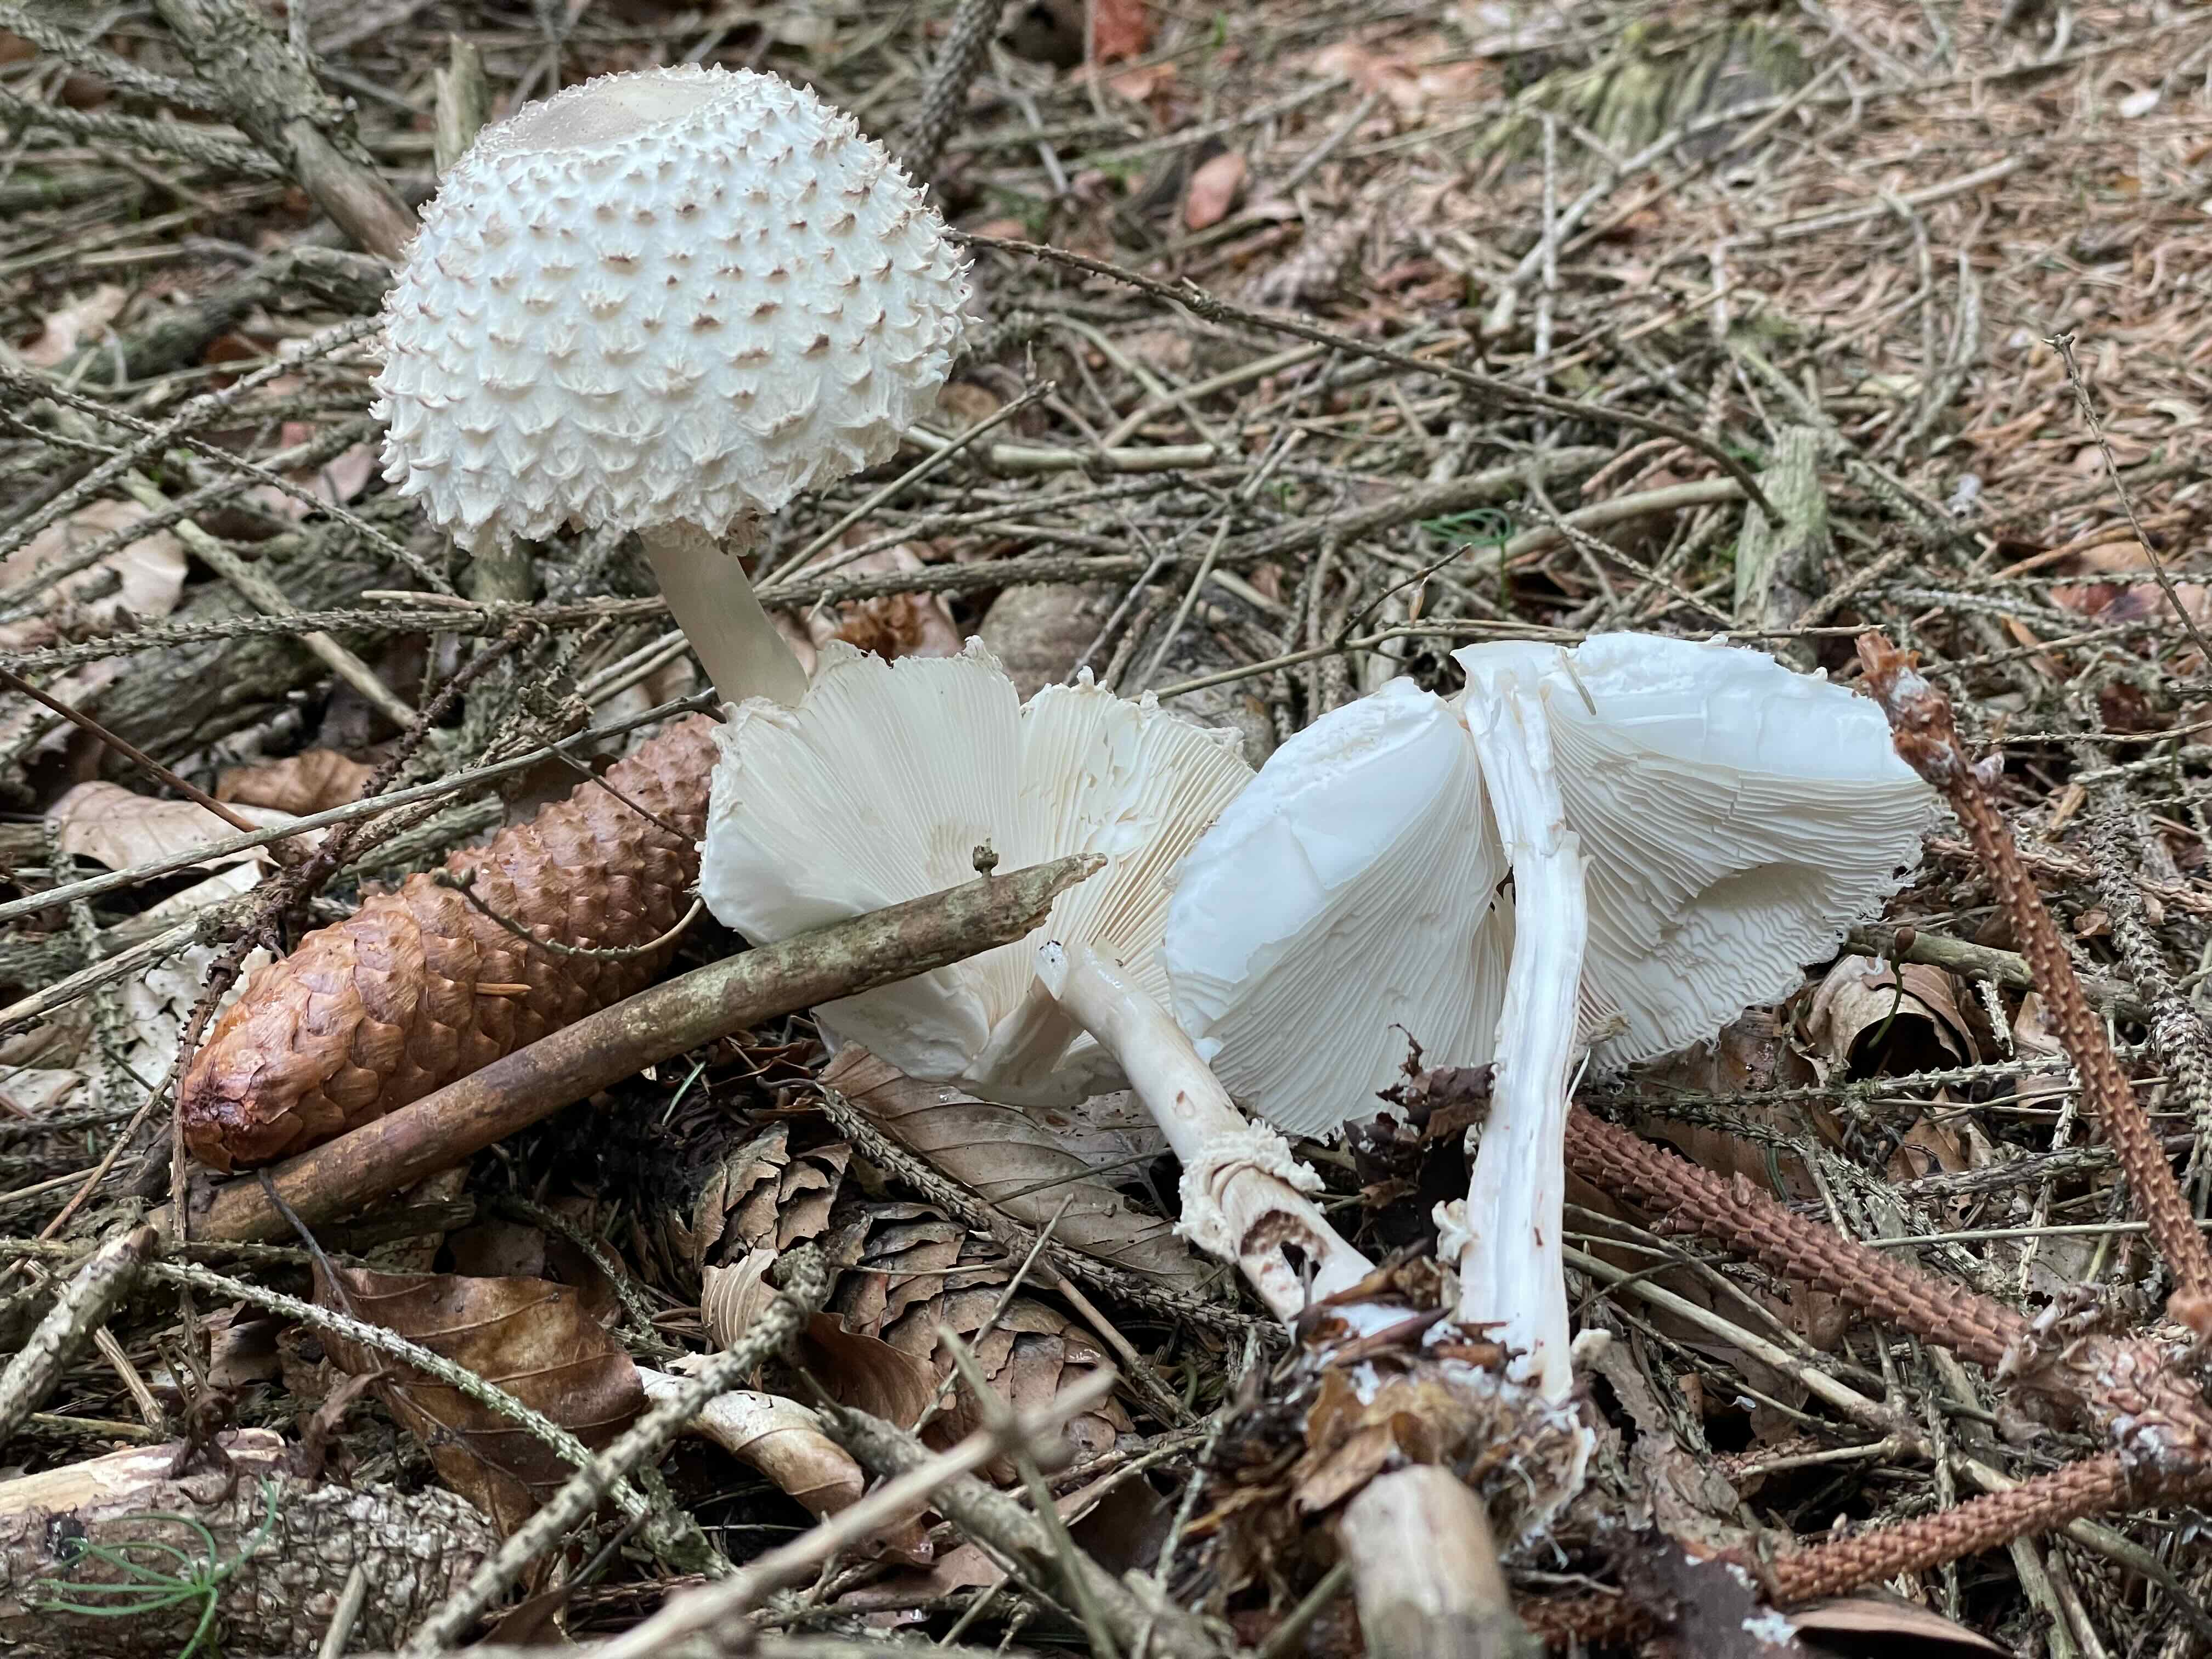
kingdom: Fungi
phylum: Basidiomycota
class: Agaricomycetes
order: Agaricales
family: Agaricaceae
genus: Leucoagaricus
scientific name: Leucoagaricus nympharum
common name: gran-silkehat
